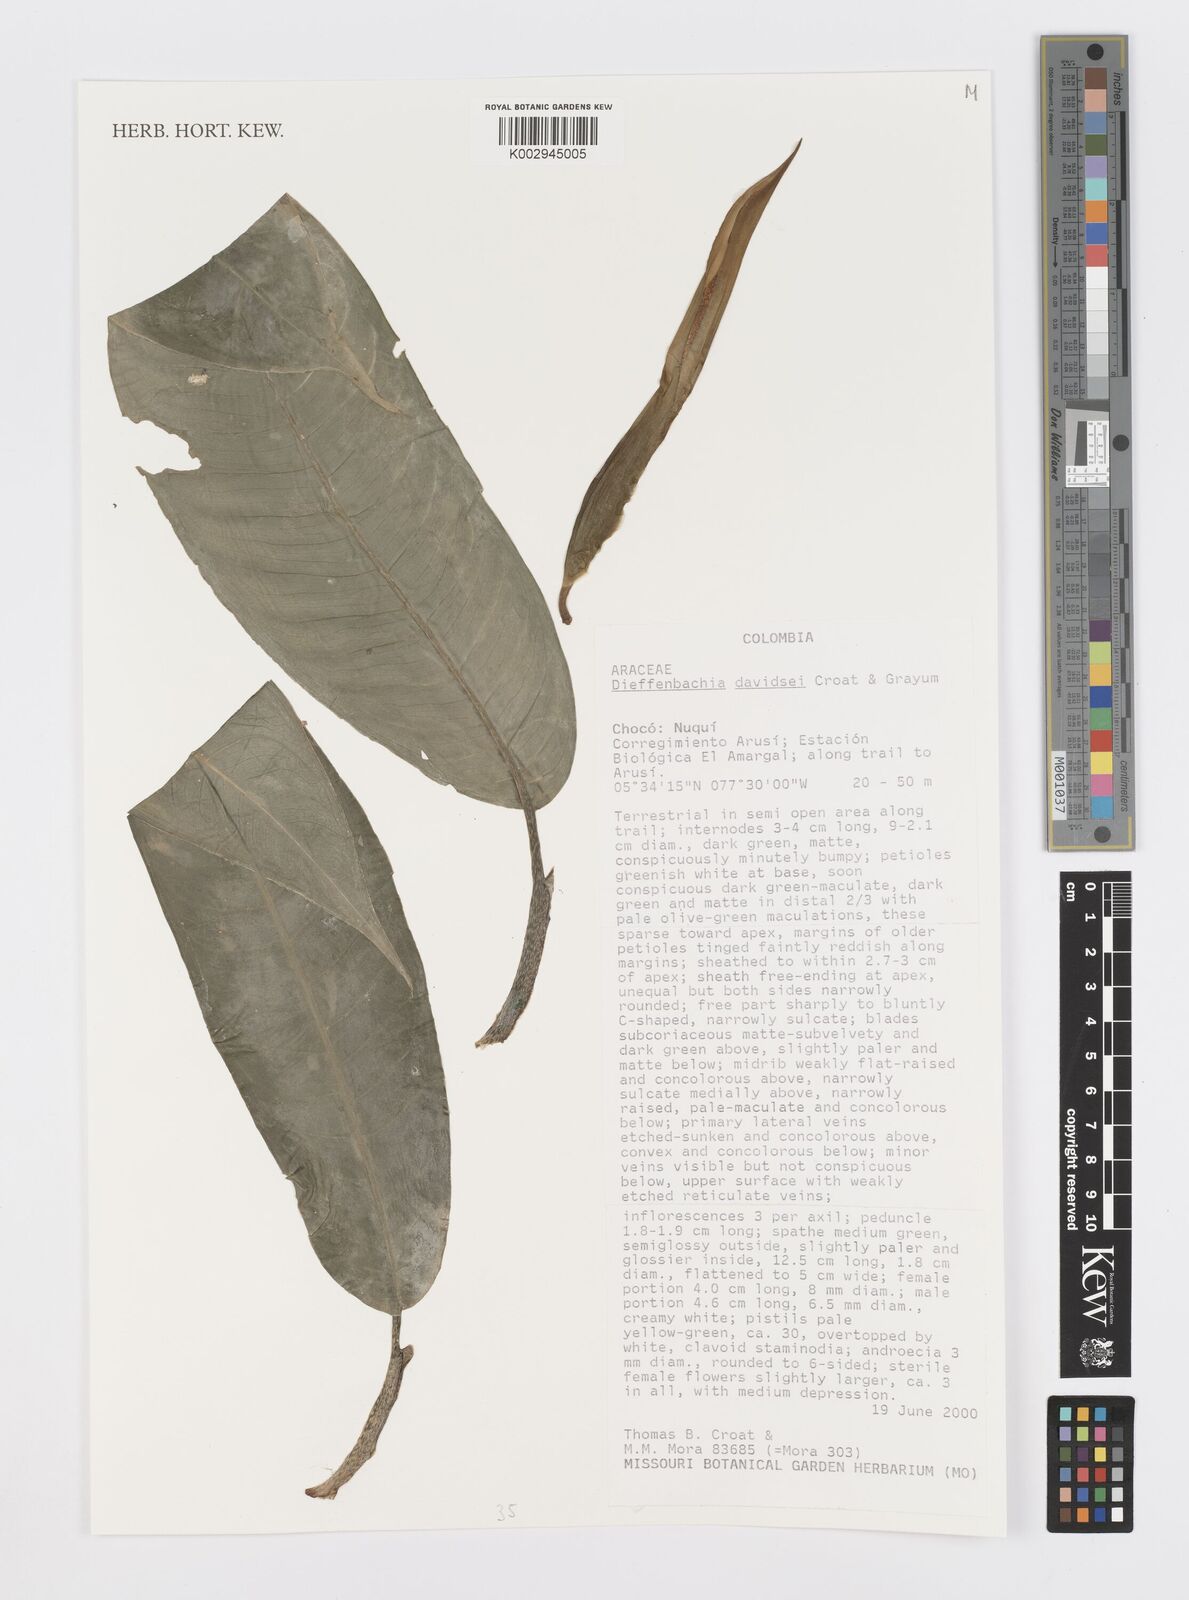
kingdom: Plantae
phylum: Tracheophyta
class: Liliopsida
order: Alismatales
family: Araceae
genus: Dieffenbachia
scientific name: Dieffenbachia davidsei
